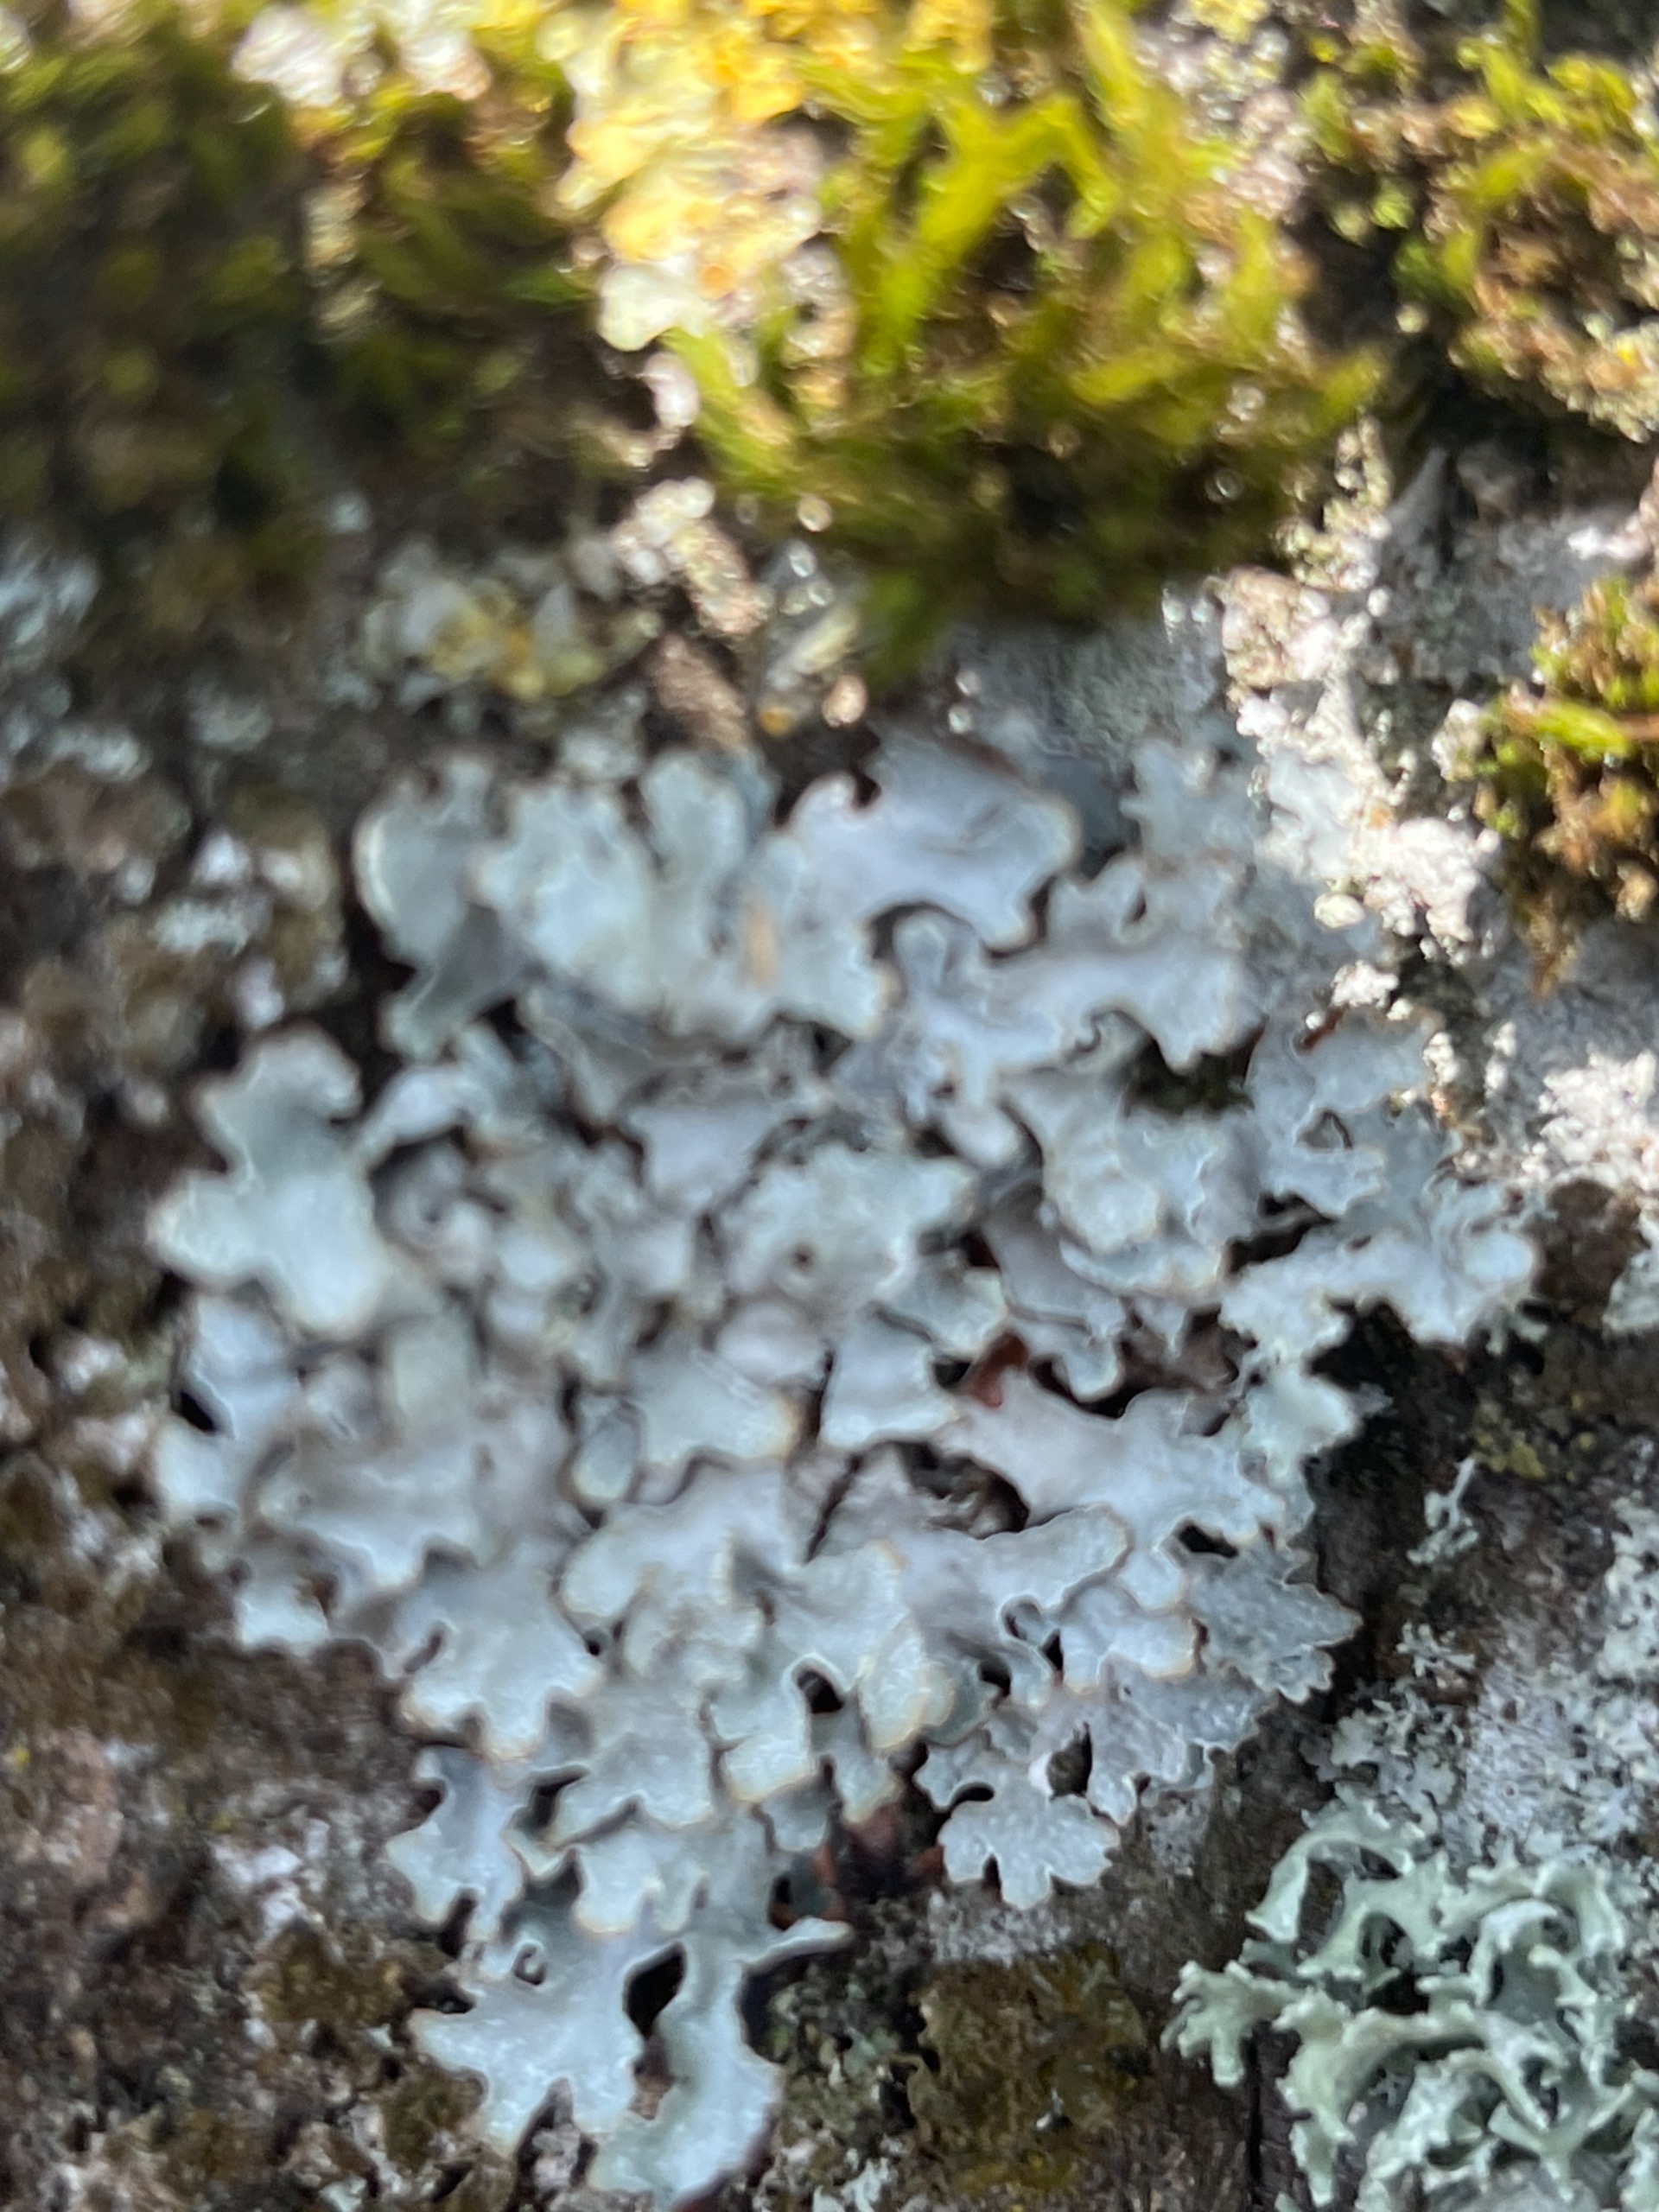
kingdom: Fungi
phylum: Ascomycota
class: Lecanoromycetes
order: Lecanorales
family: Parmeliaceae
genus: Parmelia
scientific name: Parmelia sulcata
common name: Rynket skållav
